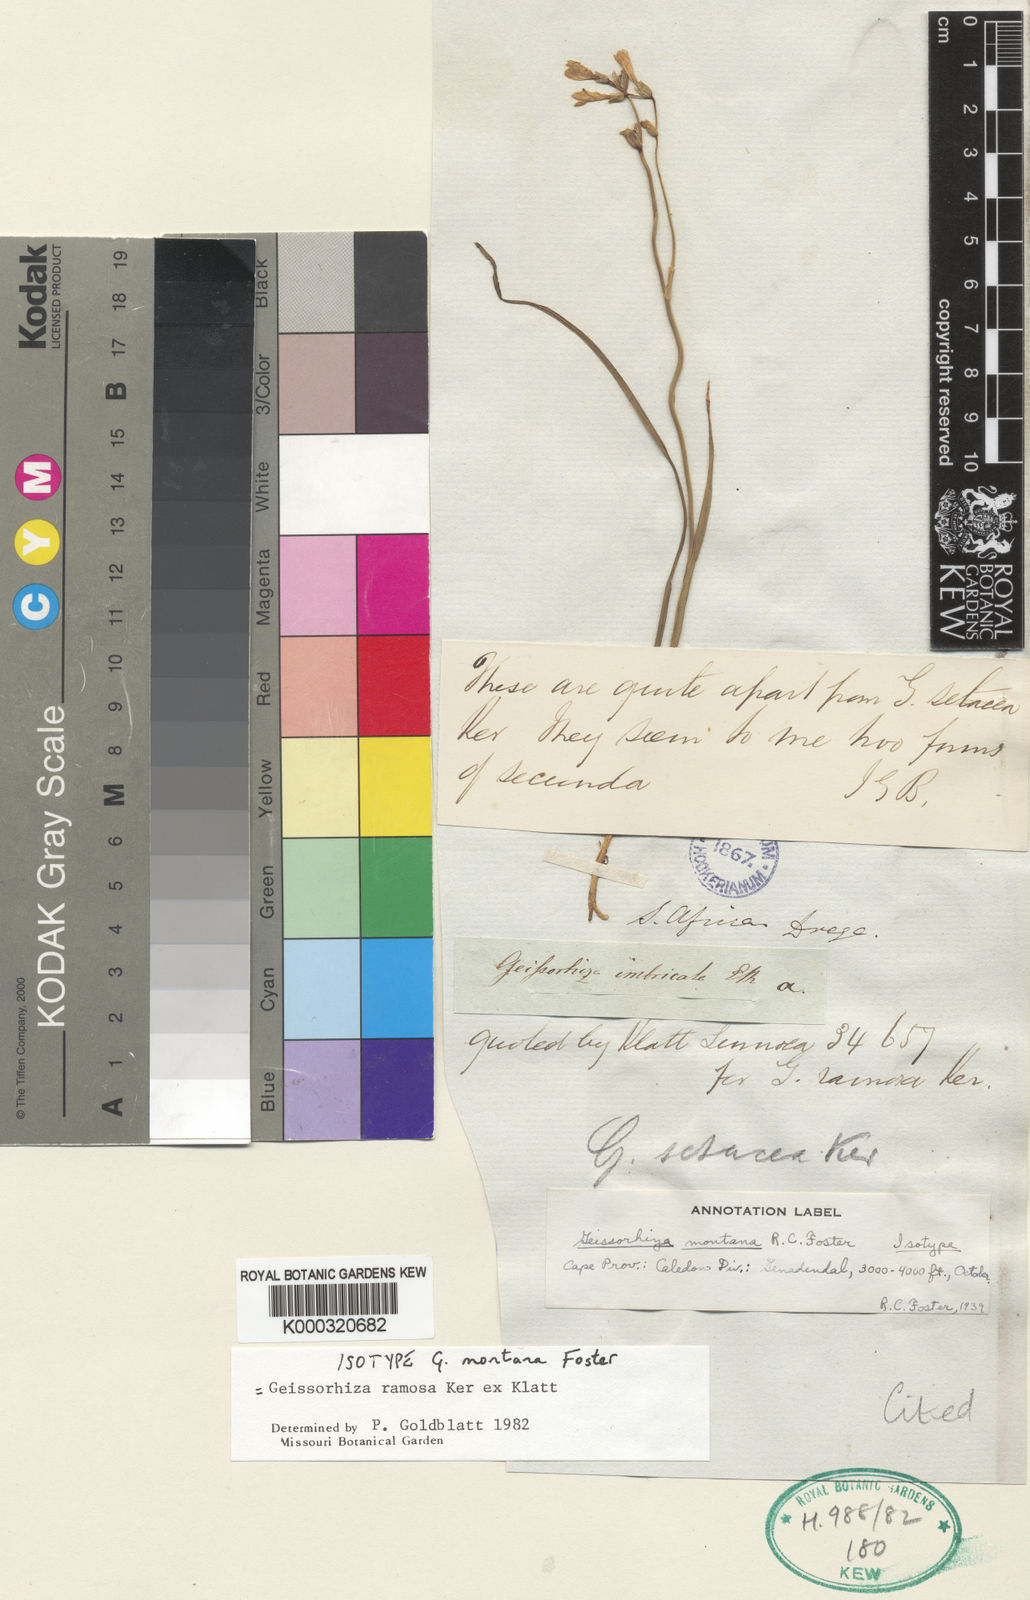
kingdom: Plantae
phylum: Tracheophyta
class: Liliopsida
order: Asparagales
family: Iridaceae
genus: Geissorhiza
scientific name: Geissorhiza ramosa
